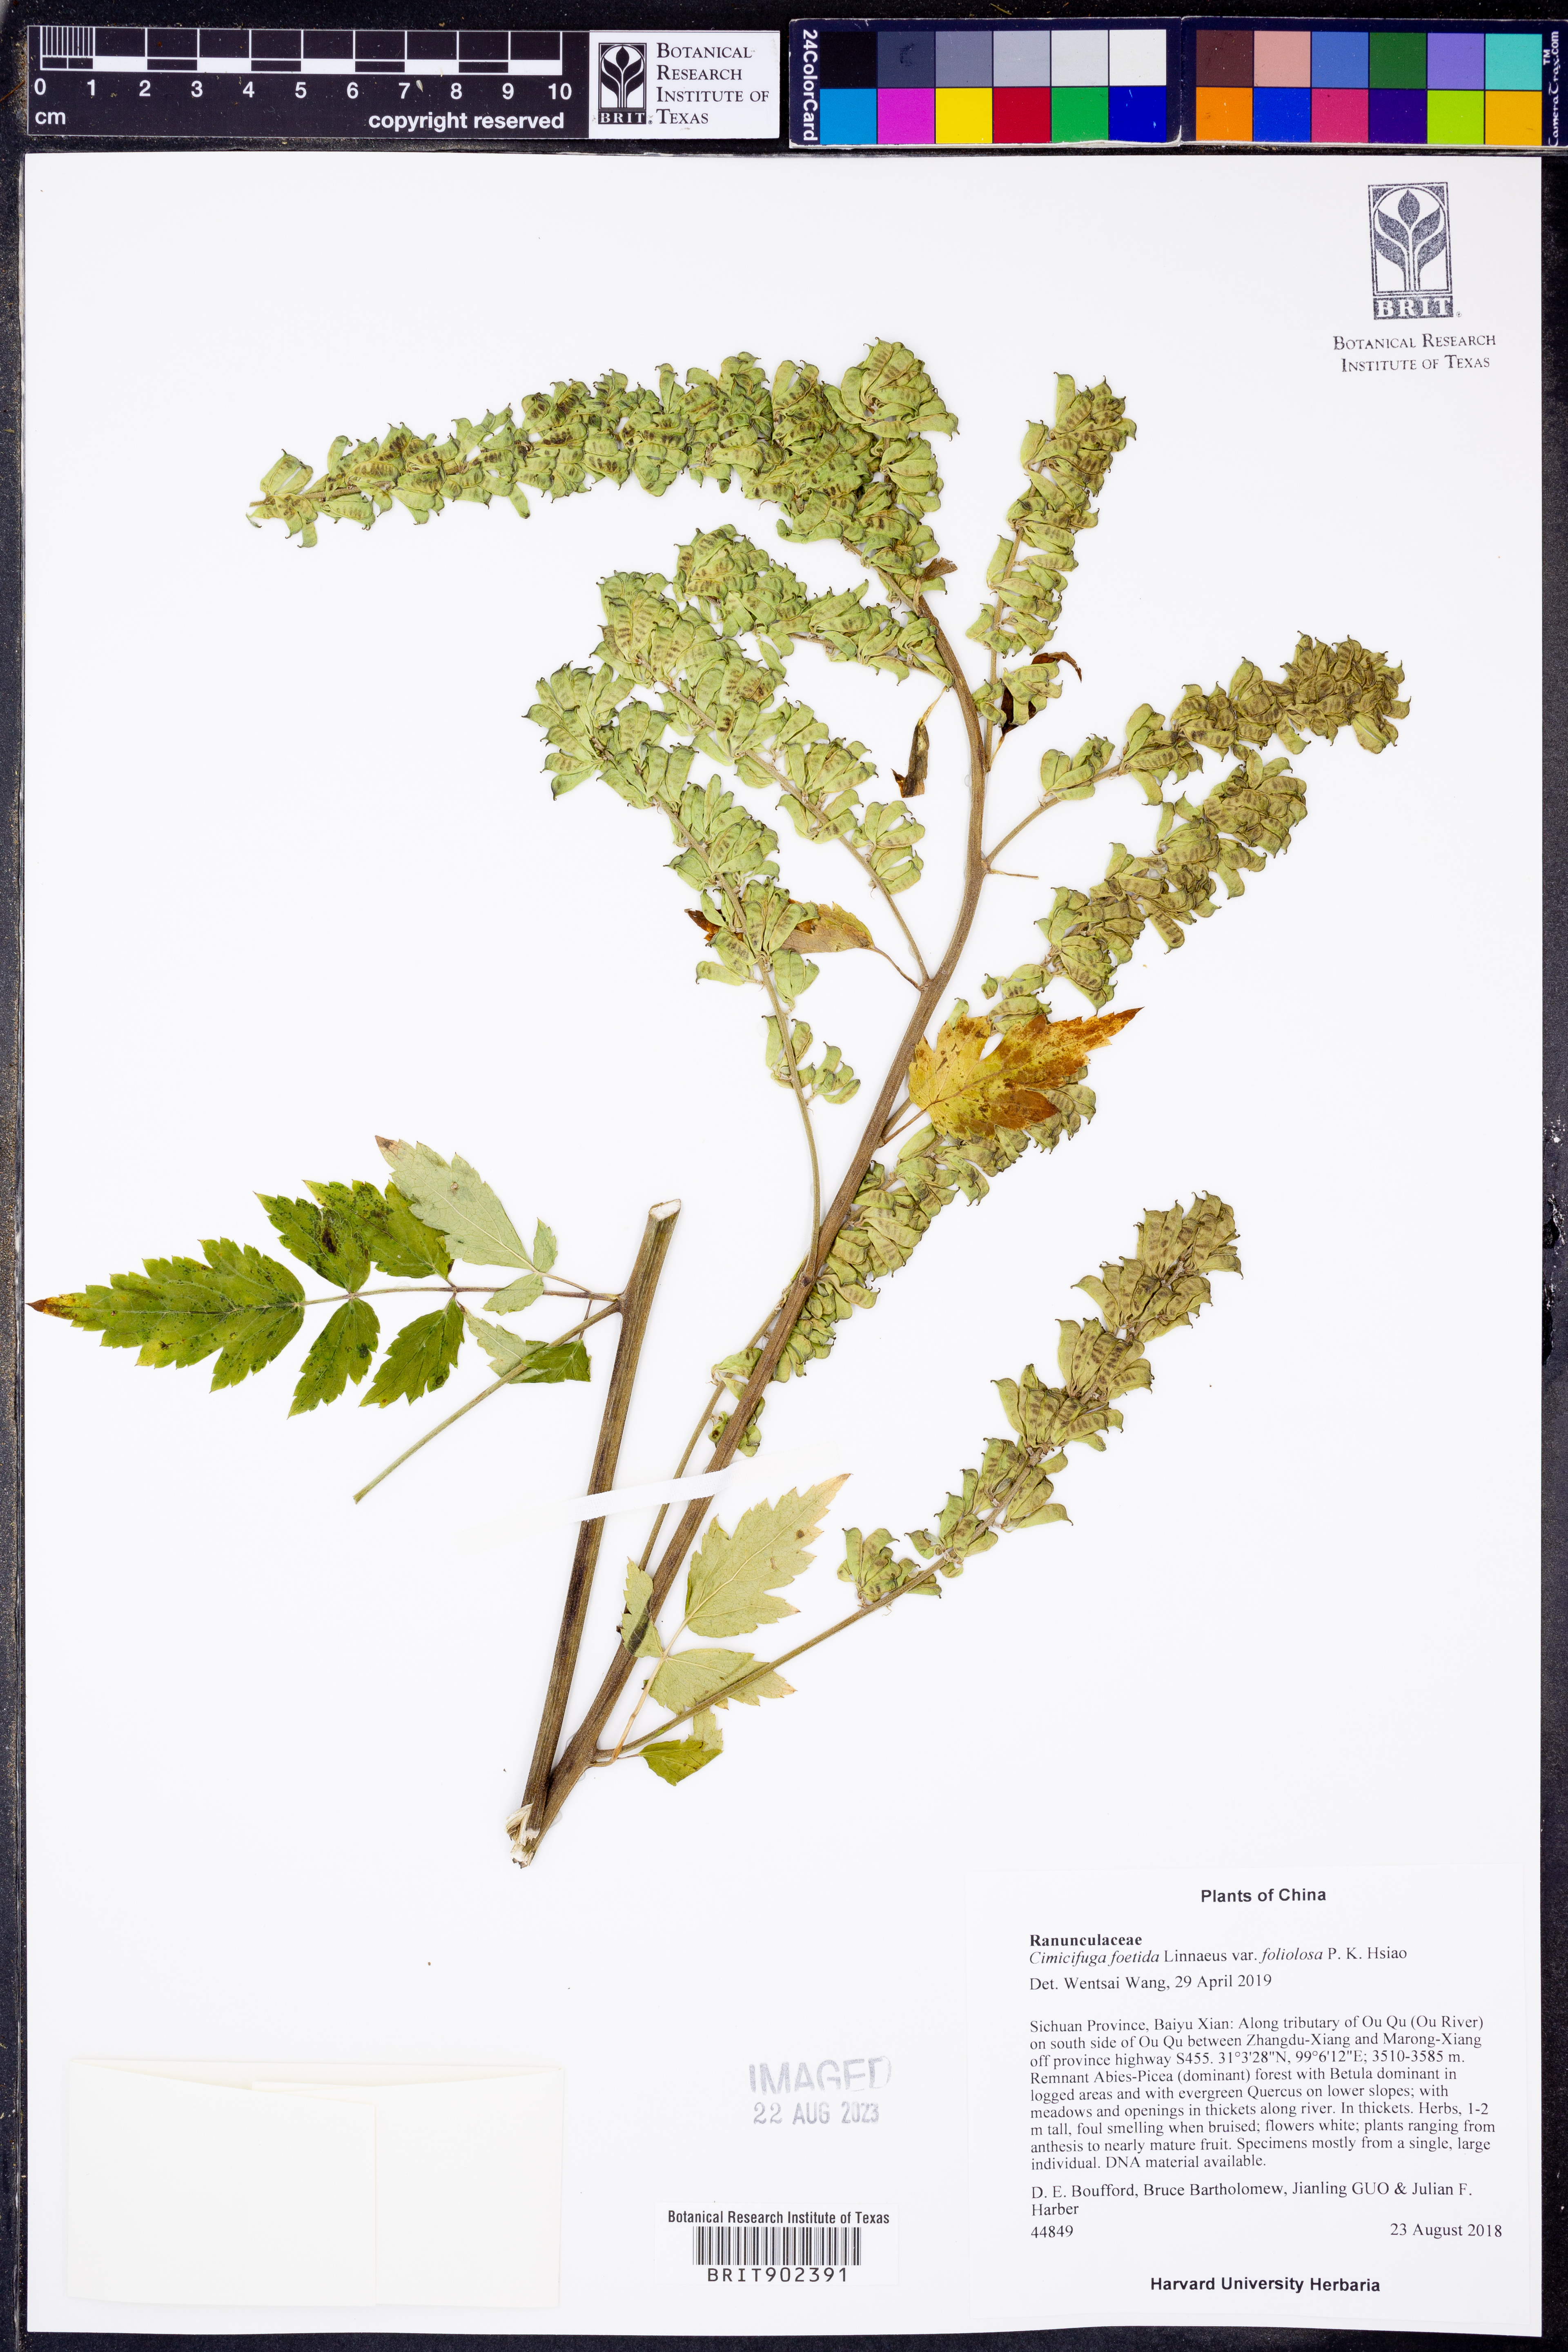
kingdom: Plantae
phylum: Tracheophyta
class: Magnoliopsida
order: Ranunculales
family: Ranunculaceae
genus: Actaea
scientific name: Actaea
